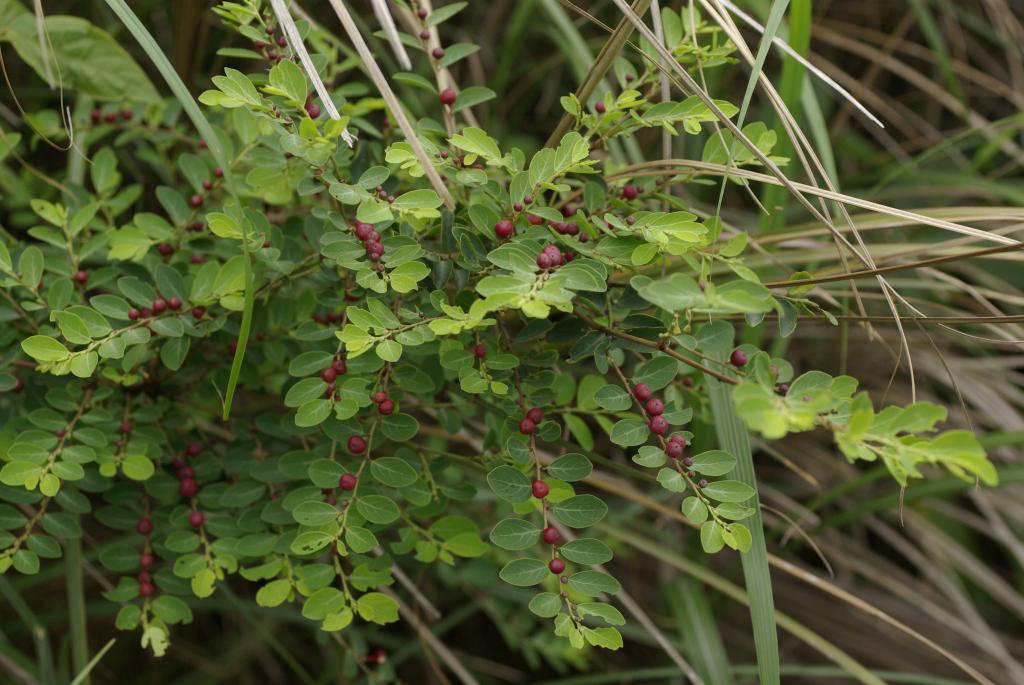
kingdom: Plantae
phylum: Tracheophyta
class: Magnoliopsida
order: Malpighiales
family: Phyllanthaceae
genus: Breynia
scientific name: Breynia officinalis
